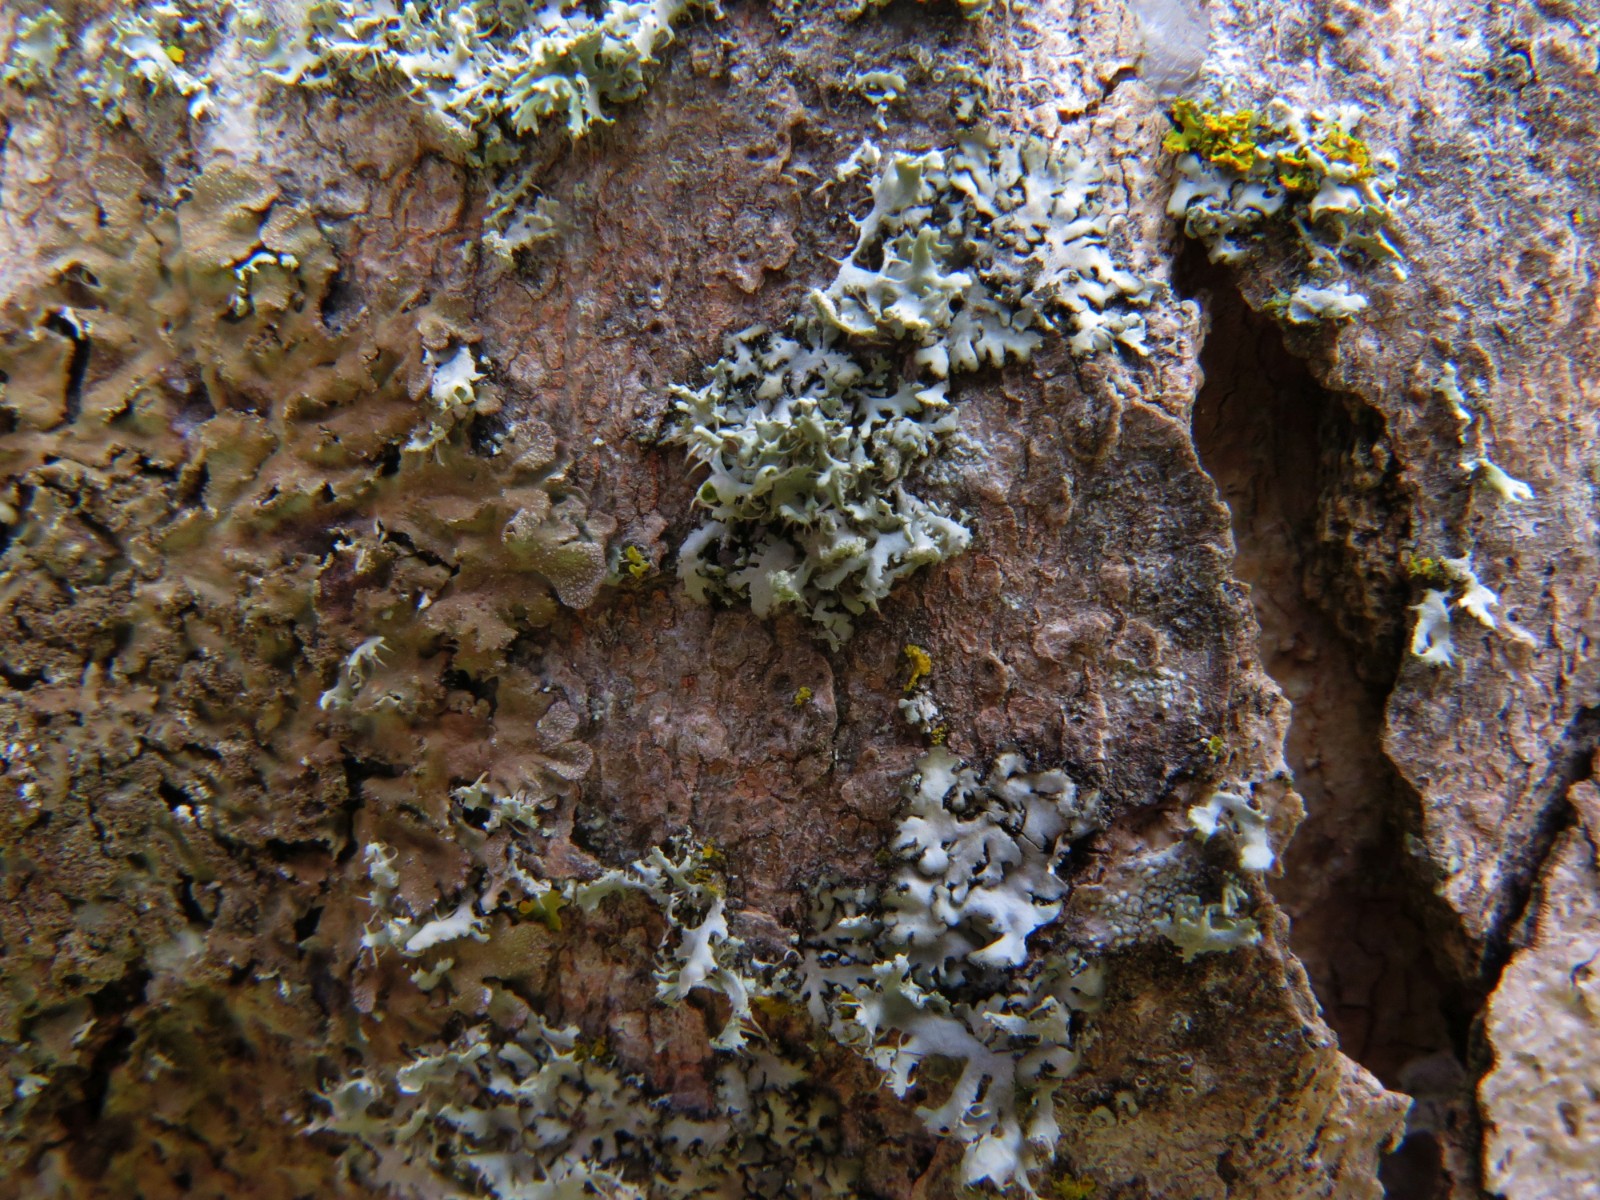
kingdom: Fungi
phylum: Ascomycota
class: Lecanoromycetes
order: Caliciales
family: Physciaceae
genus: Physcia
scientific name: Physcia tenella
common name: spæd rosetlav
